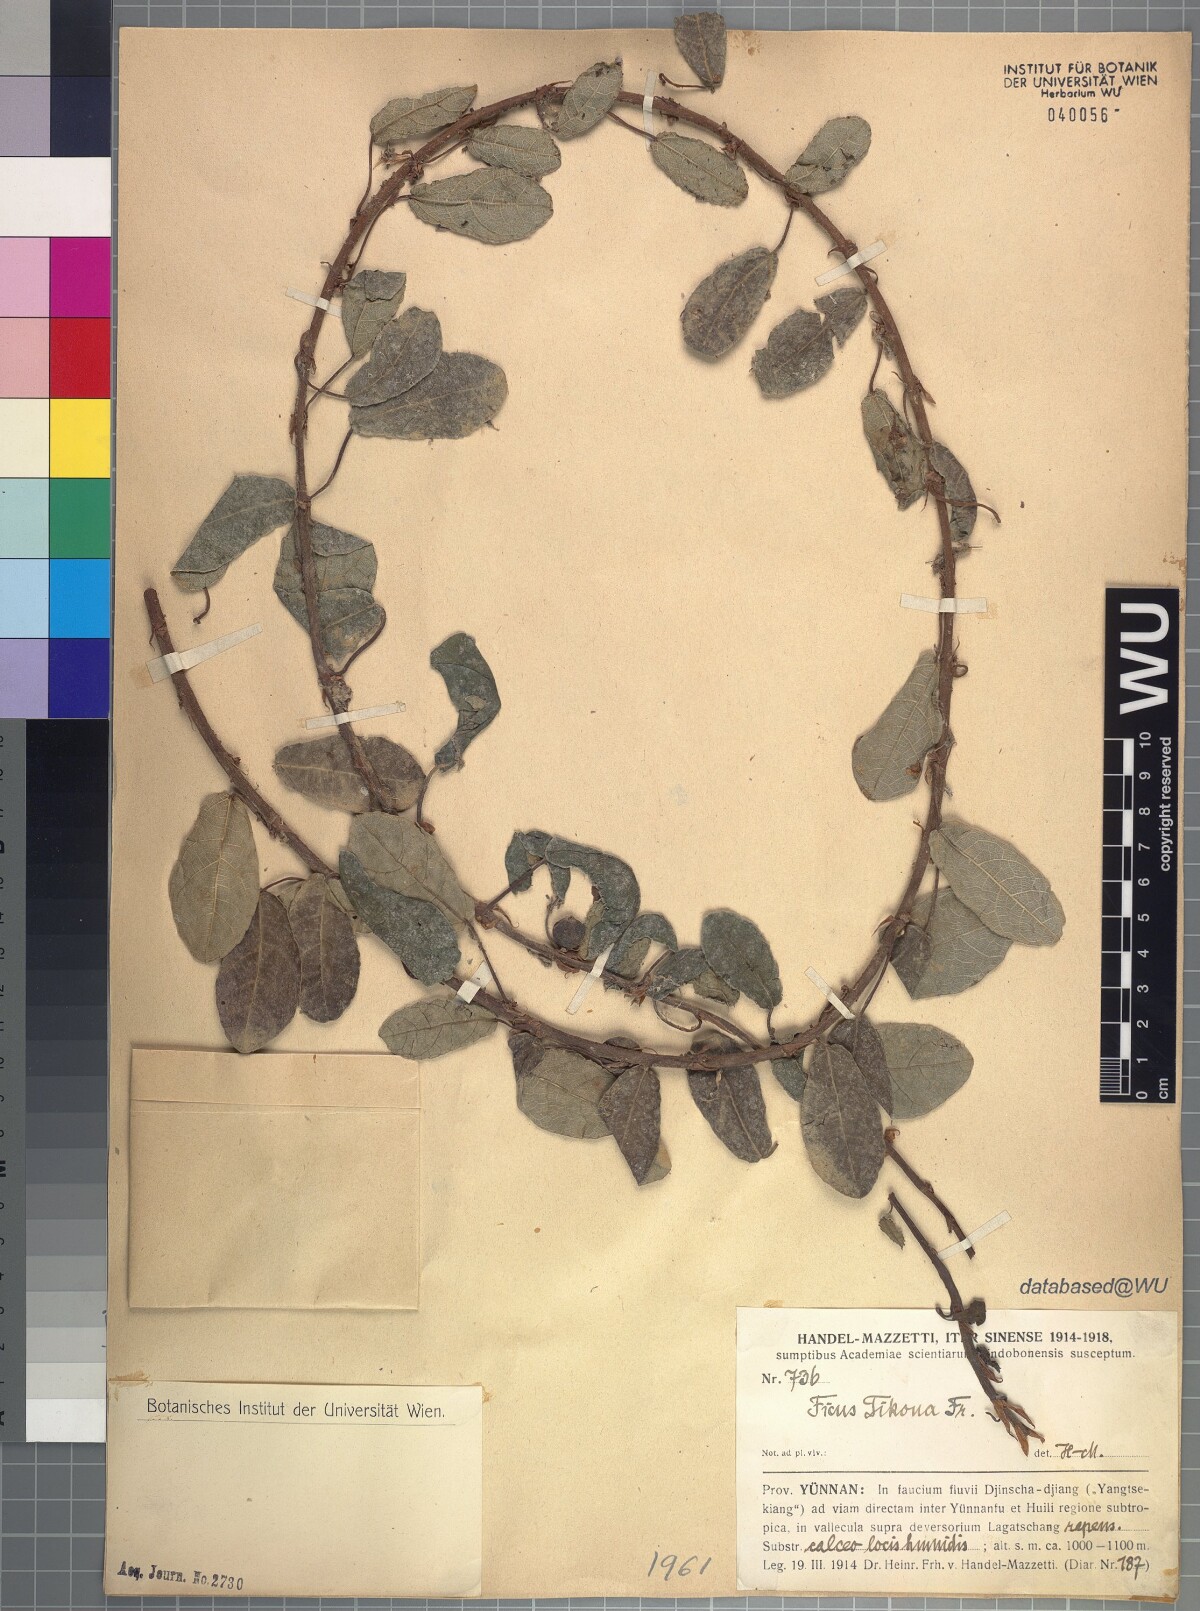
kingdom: Plantae
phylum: Tracheophyta
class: Magnoliopsida
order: Rosales
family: Moraceae
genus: Ficus
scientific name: Ficus tikoua
